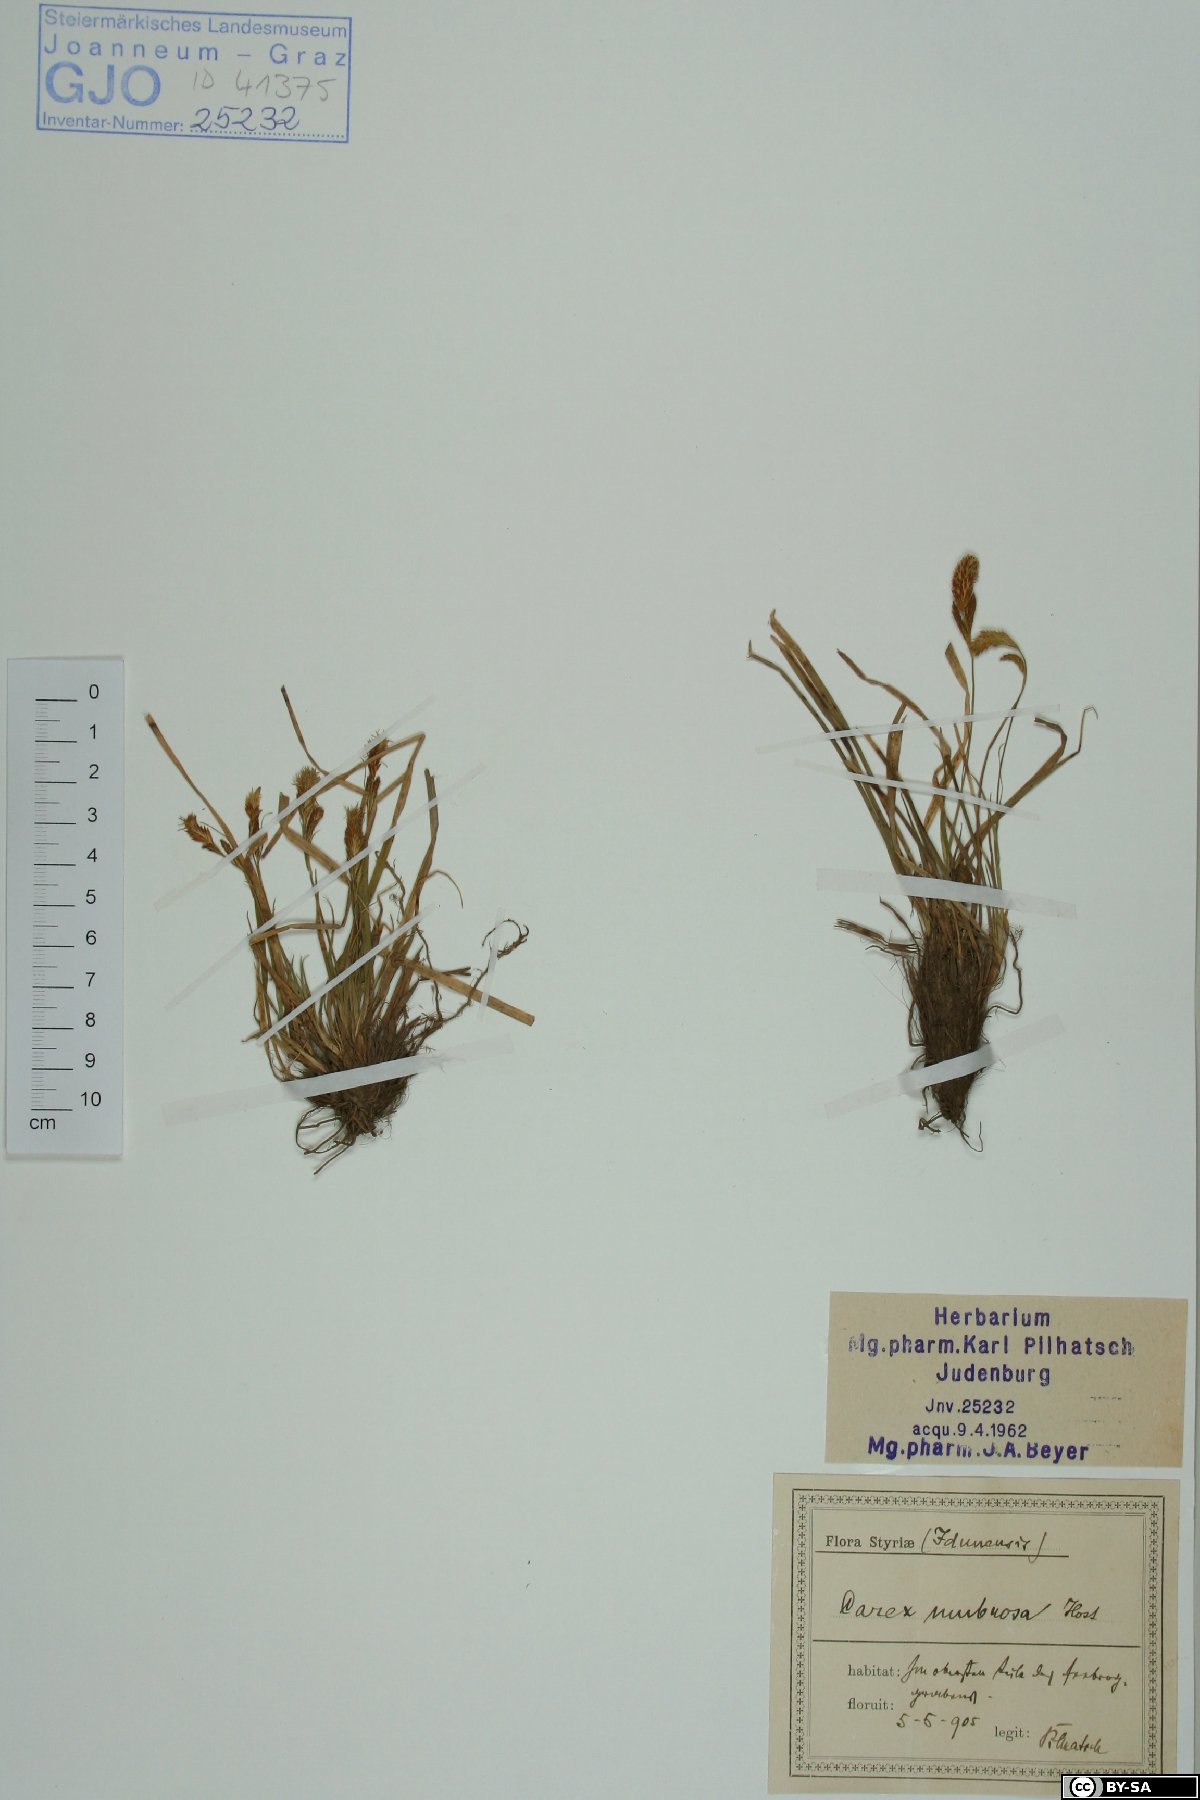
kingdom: Plantae
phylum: Tracheophyta
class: Liliopsida
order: Poales
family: Cyperaceae
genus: Carex
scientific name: Carex umbrosa
